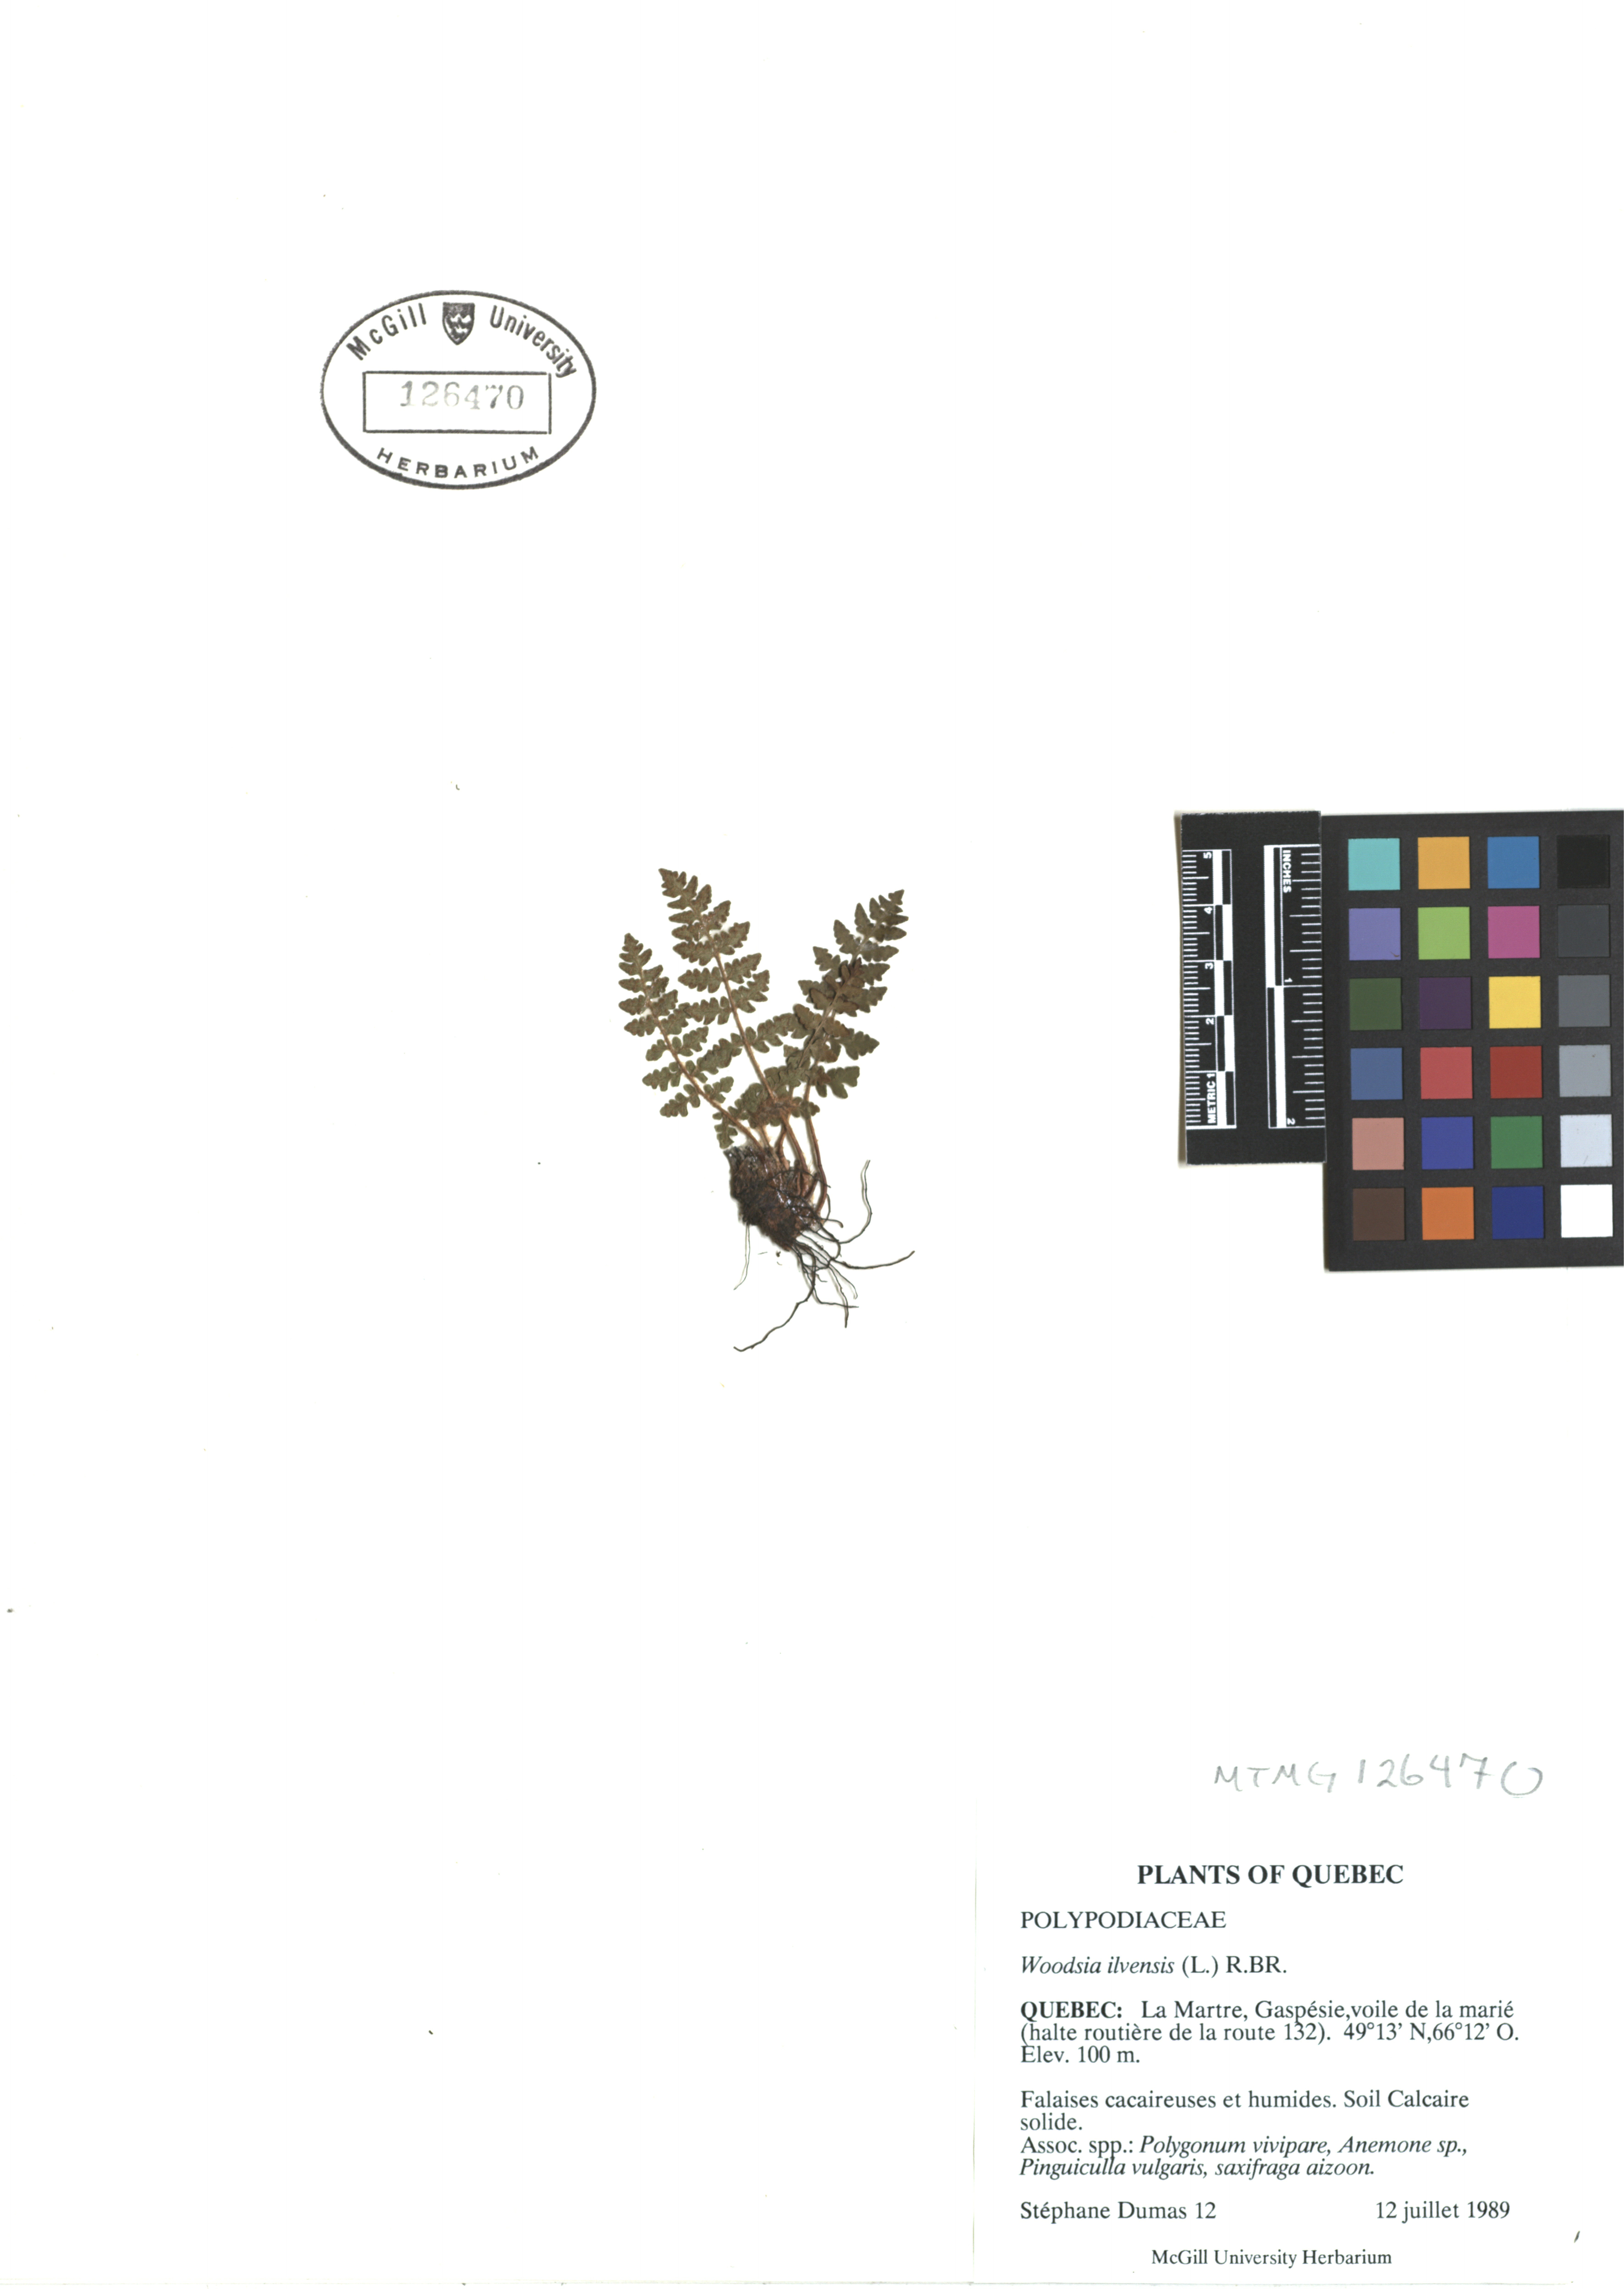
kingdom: Plantae
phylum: Tracheophyta
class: Polypodiopsida
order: Polypodiales
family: Woodsiaceae
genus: Woodsia
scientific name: Woodsia ilvensis
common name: Fragrant woodsia
